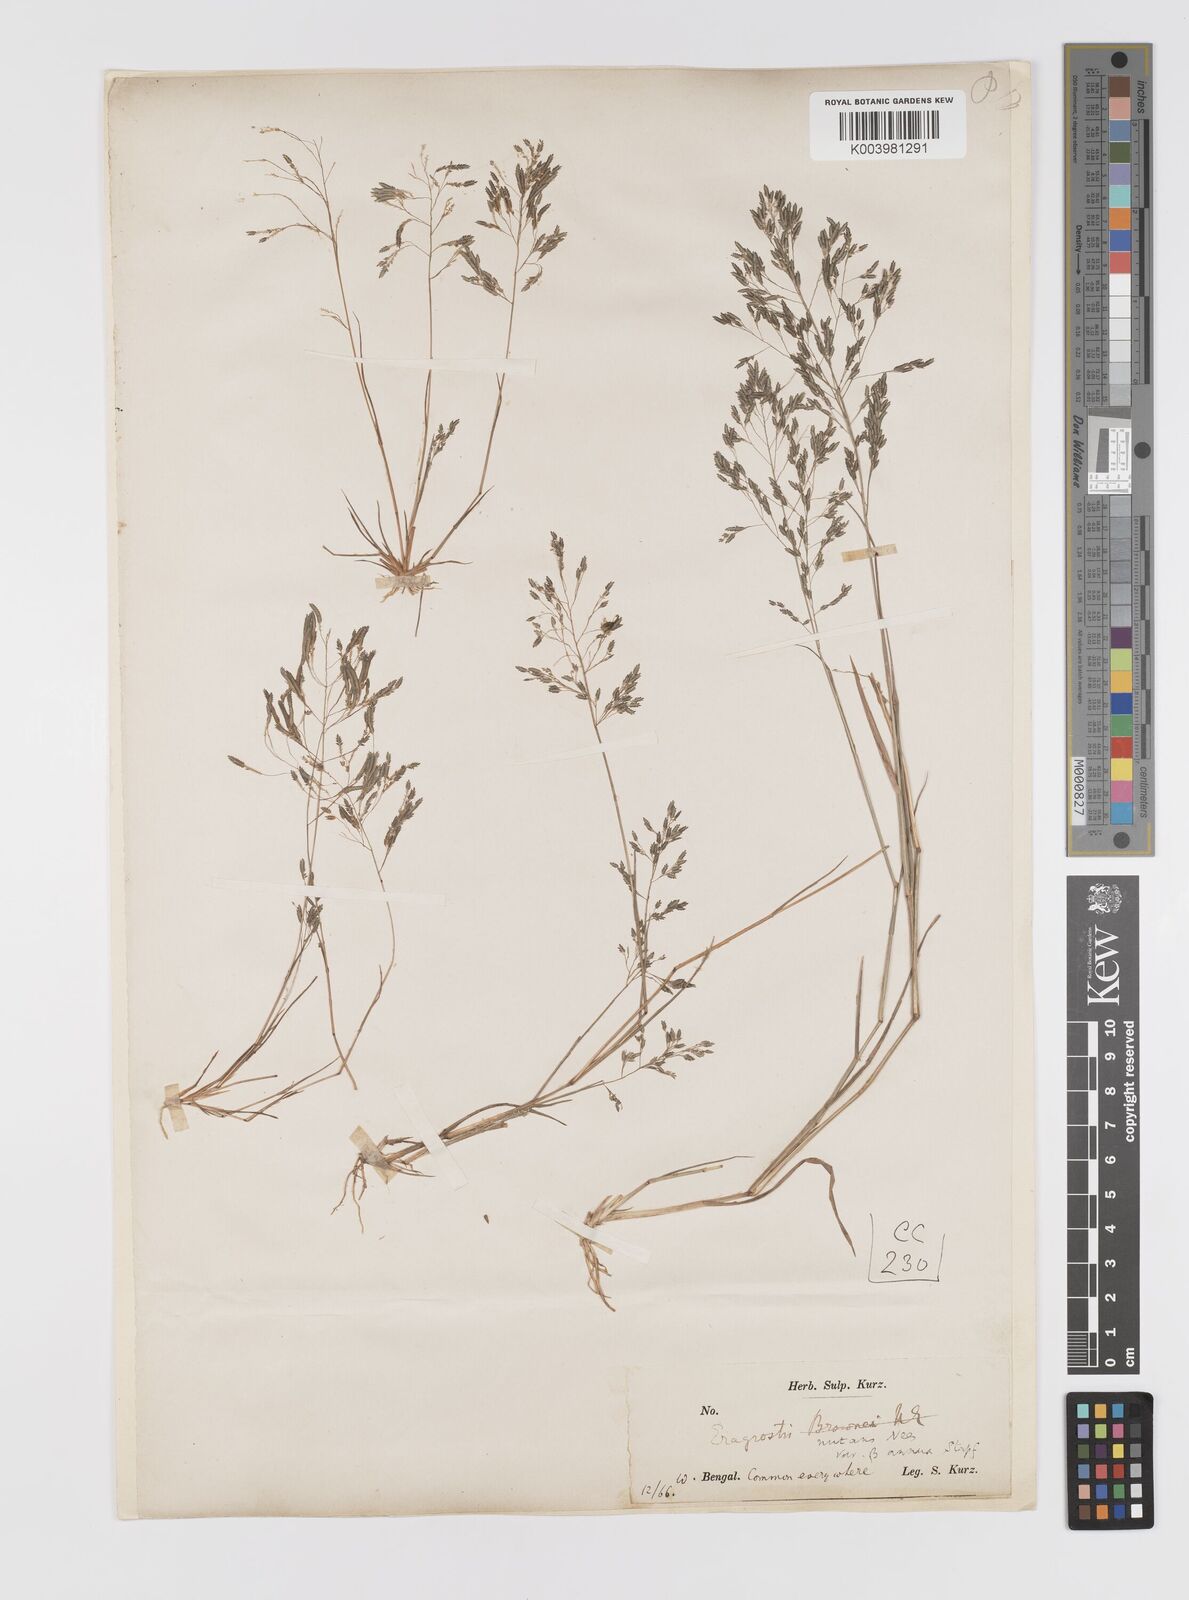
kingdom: Plantae
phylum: Tracheophyta
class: Liliopsida
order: Poales
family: Poaceae
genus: Eragrostis
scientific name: Eragrostis gangetica
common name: Slimflower lovegrass
